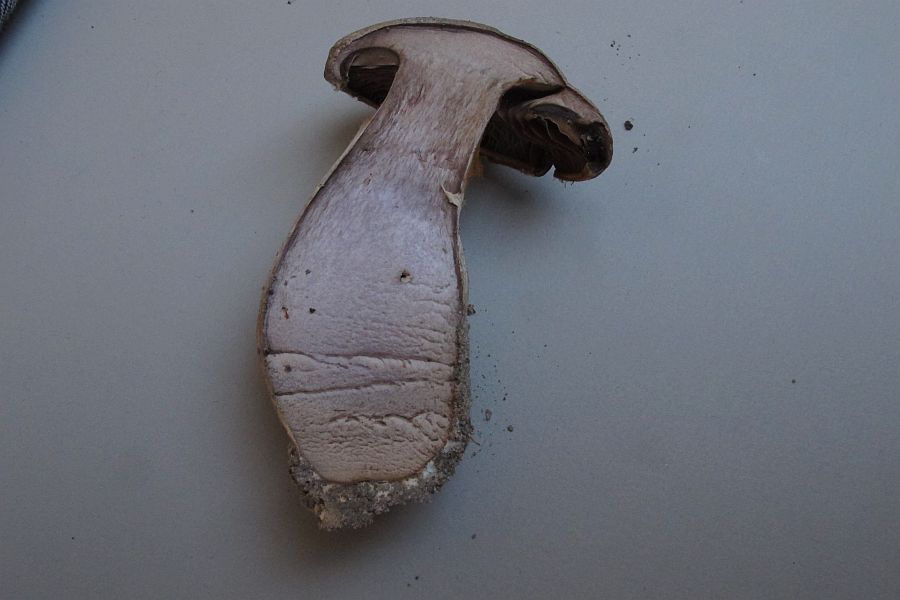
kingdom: Fungi
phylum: Basidiomycota
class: Agaricomycetes
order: Agaricales
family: Cortinariaceae
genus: Cortinarius
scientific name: Cortinarius
